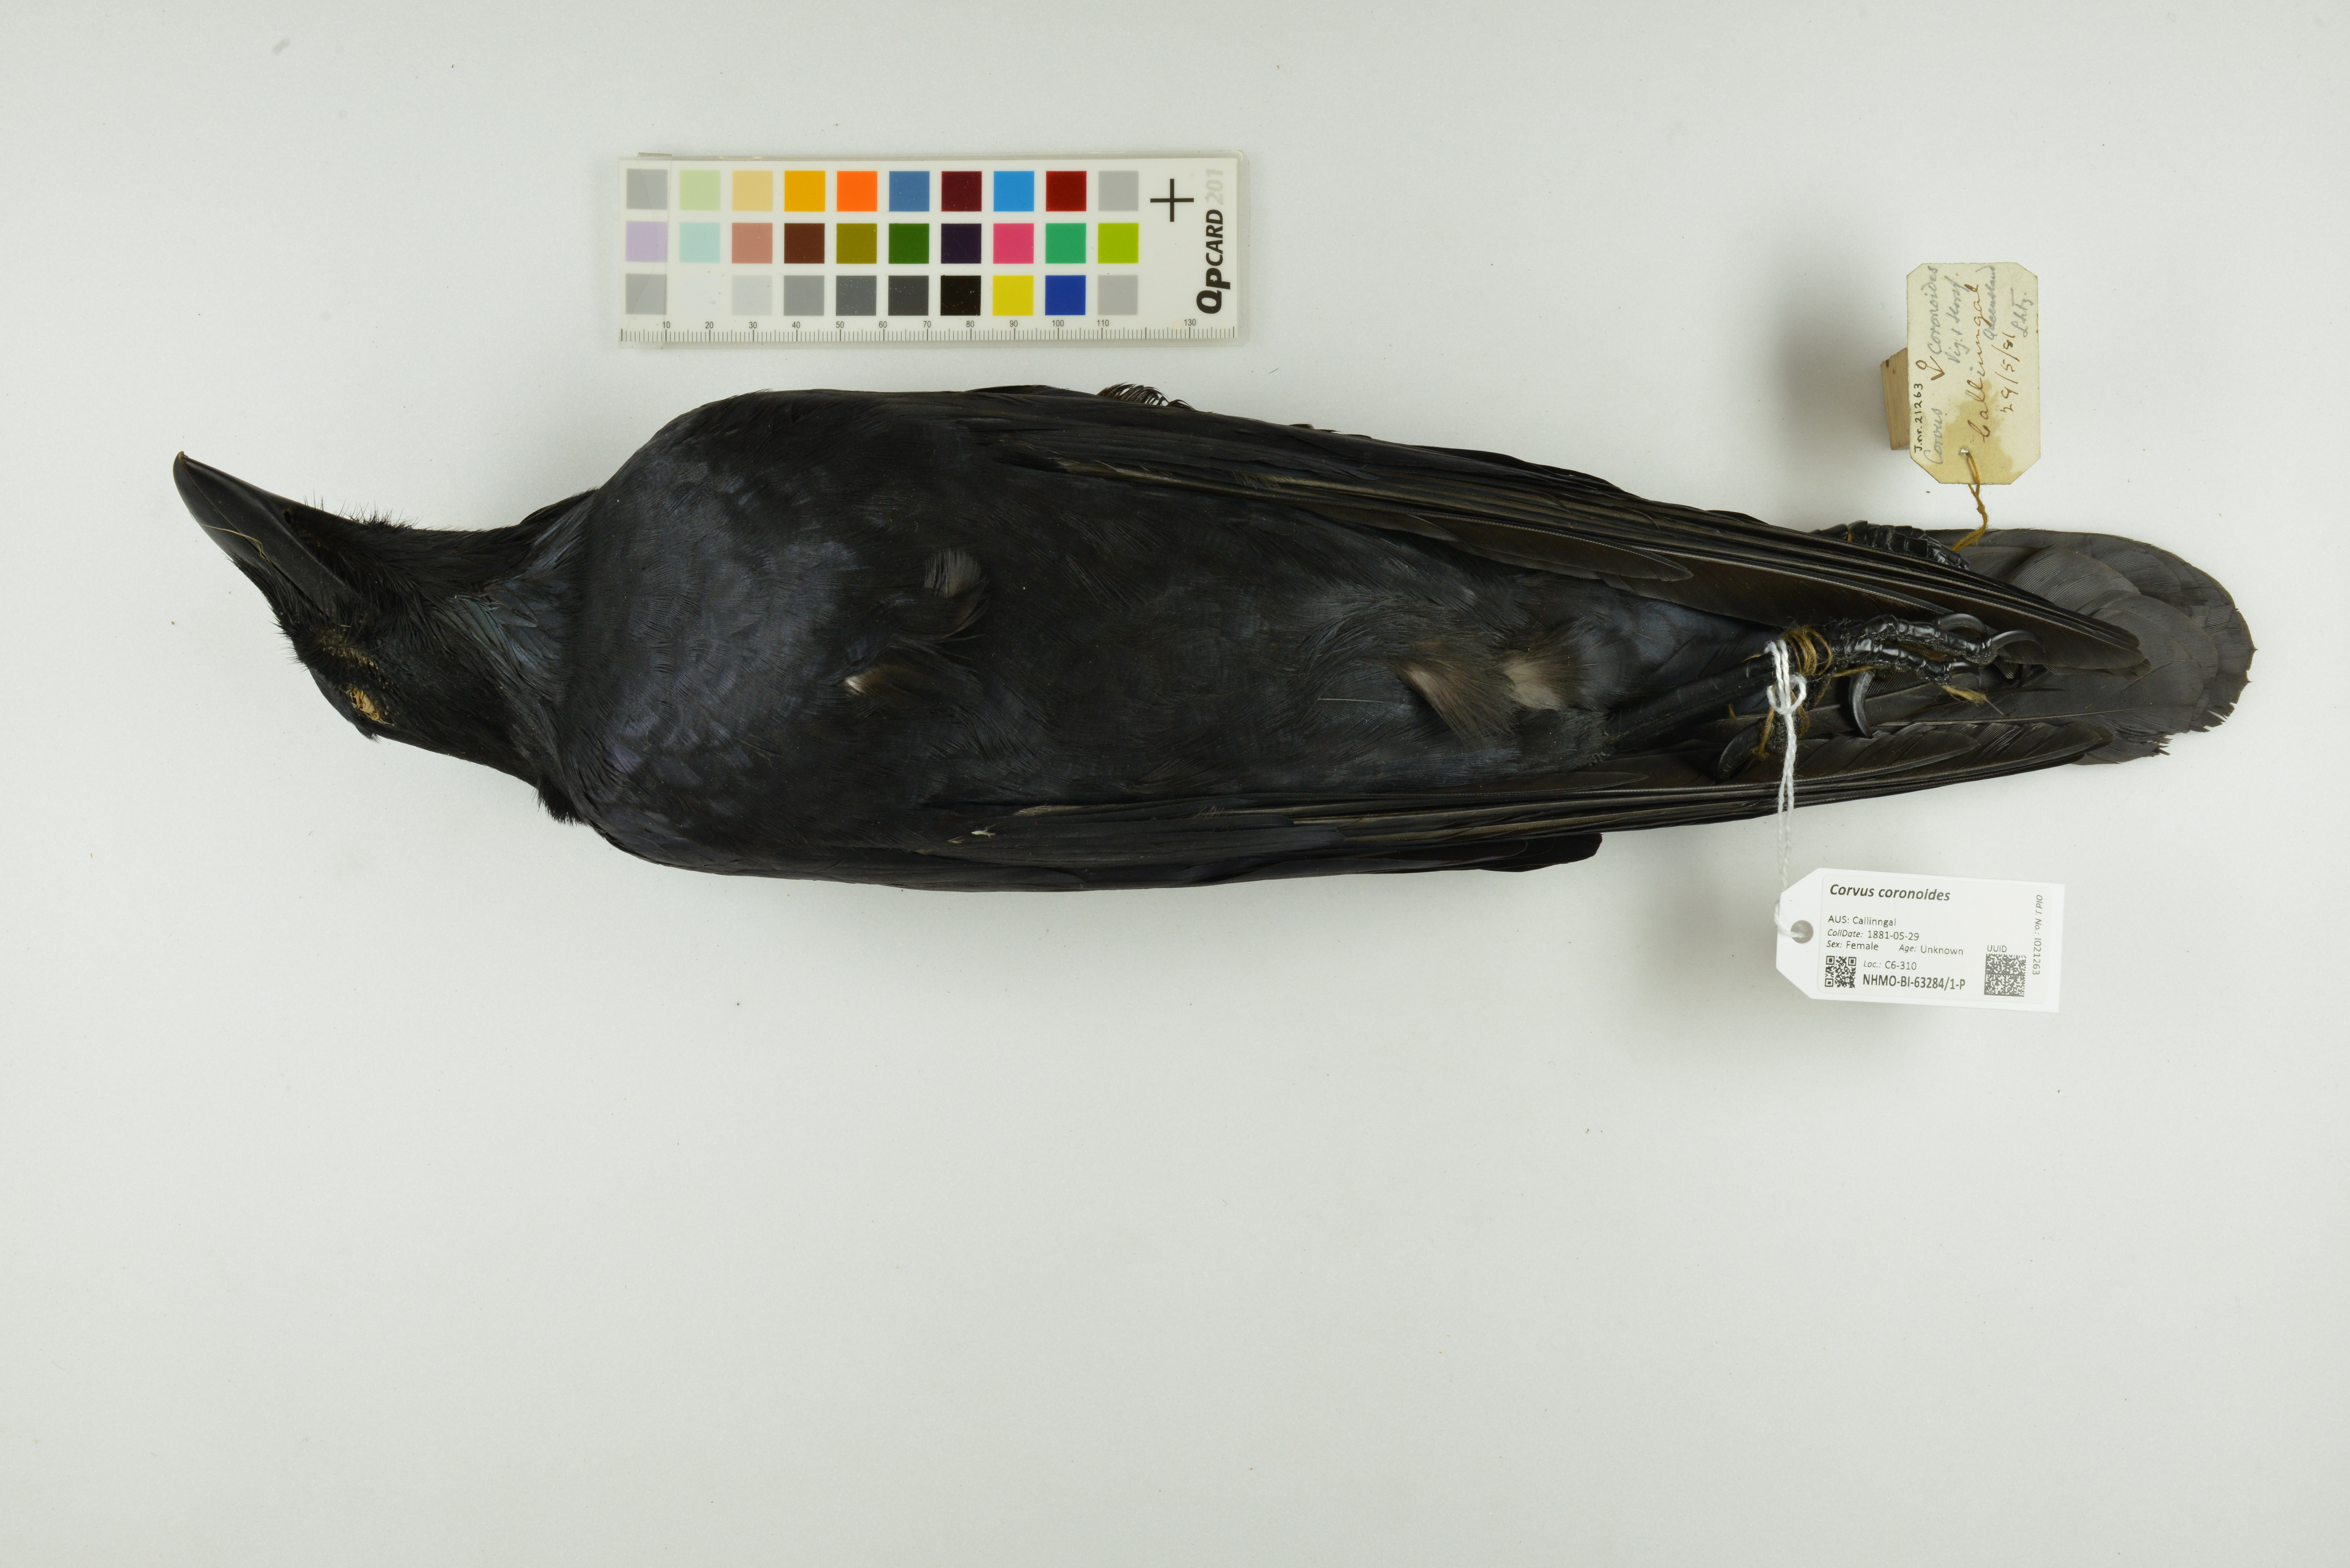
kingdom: Animalia
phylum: Chordata
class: Aves
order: Passeriformes
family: Corvidae
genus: Corvus
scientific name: Corvus coronoides
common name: Australian raven
